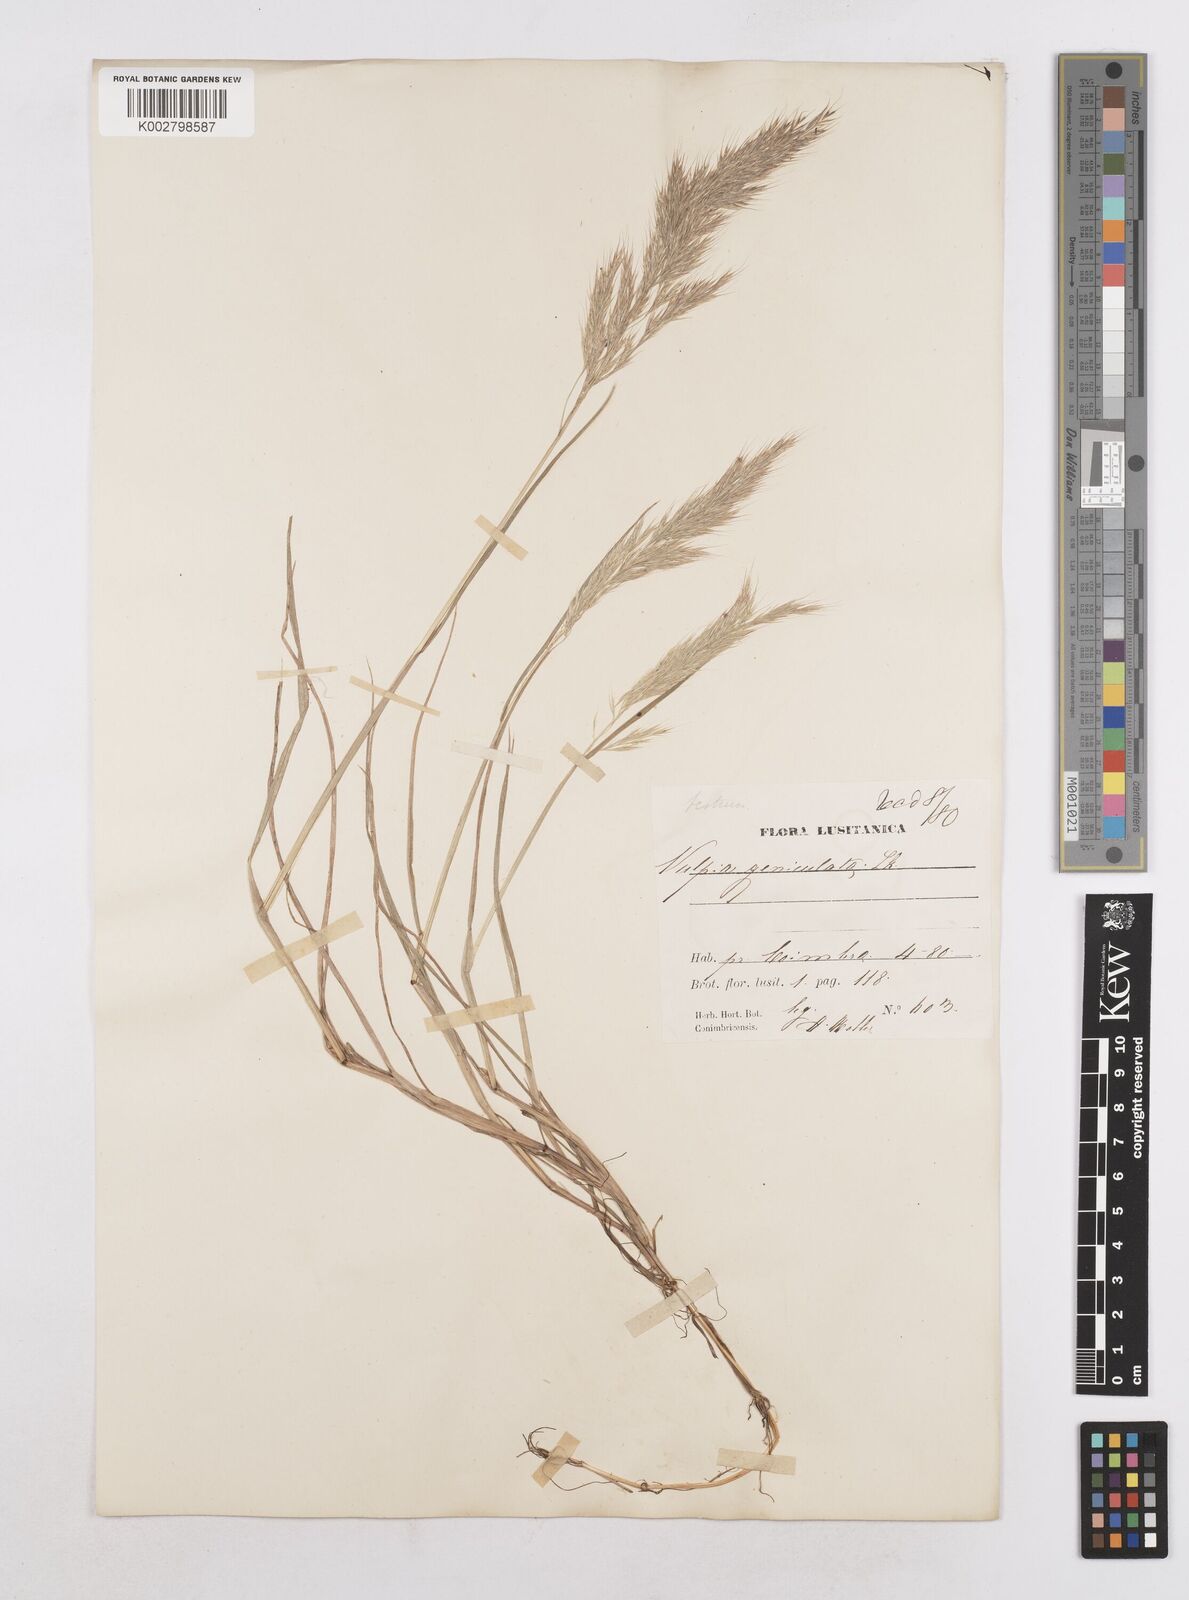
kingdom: Plantae
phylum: Tracheophyta
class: Liliopsida
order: Poales
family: Poaceae
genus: Festuca
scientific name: Festuca geniculata
